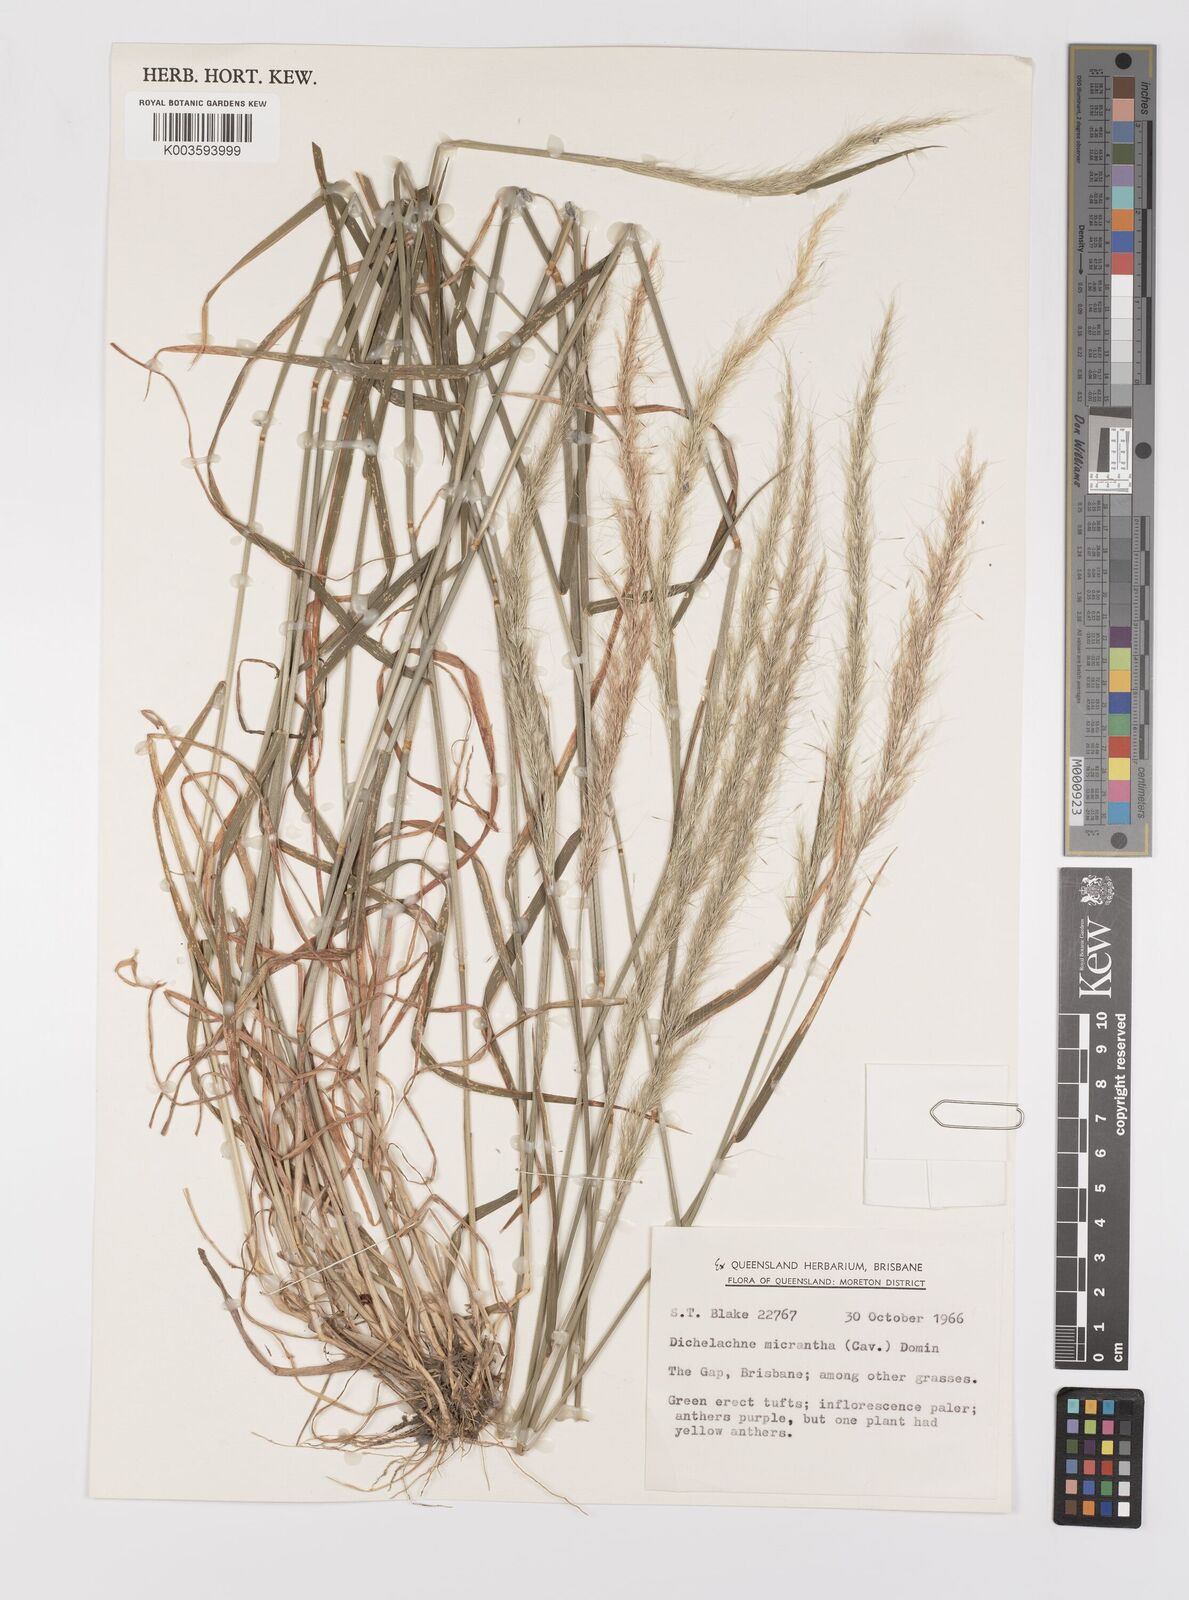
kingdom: Plantae
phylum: Tracheophyta
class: Liliopsida
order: Poales
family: Poaceae
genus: Dichelachne
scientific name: Dichelachne micrantha
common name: Plumegrass
